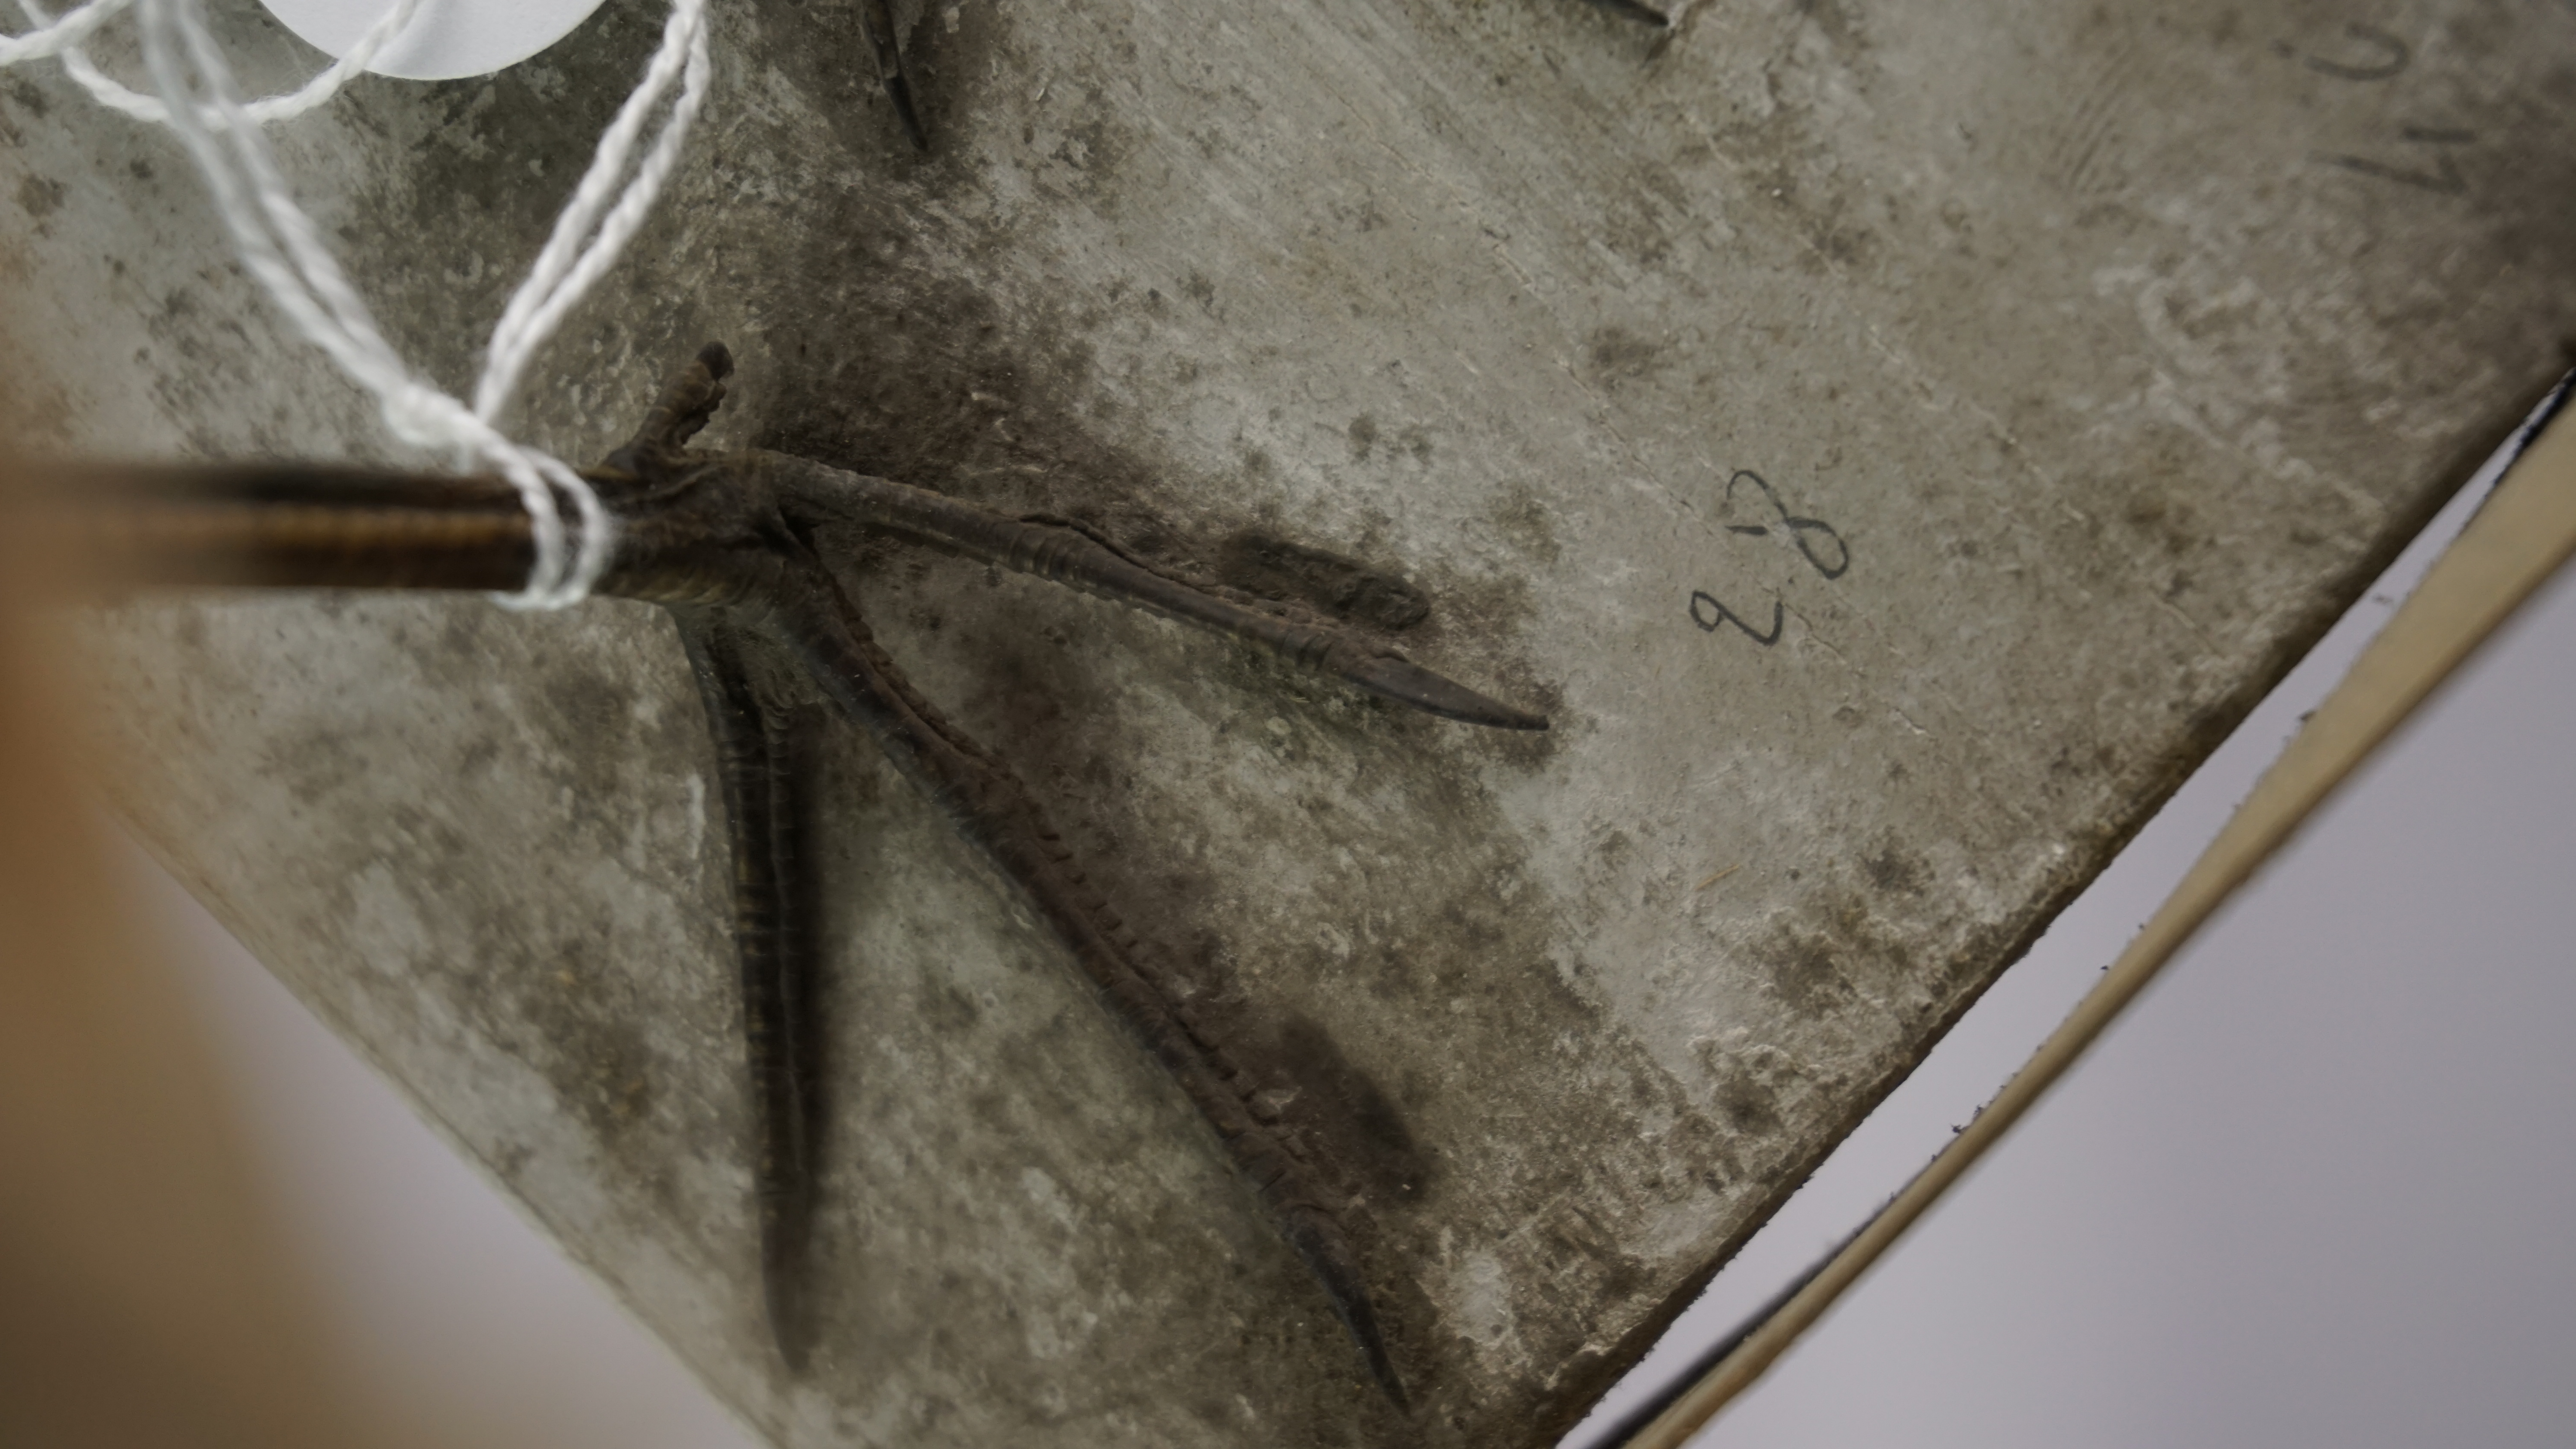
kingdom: Animalia
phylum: Chordata
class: Aves
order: Charadriiformes
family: Scolopacidae
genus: Calidris
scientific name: Calidris pugnax
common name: Ruff
